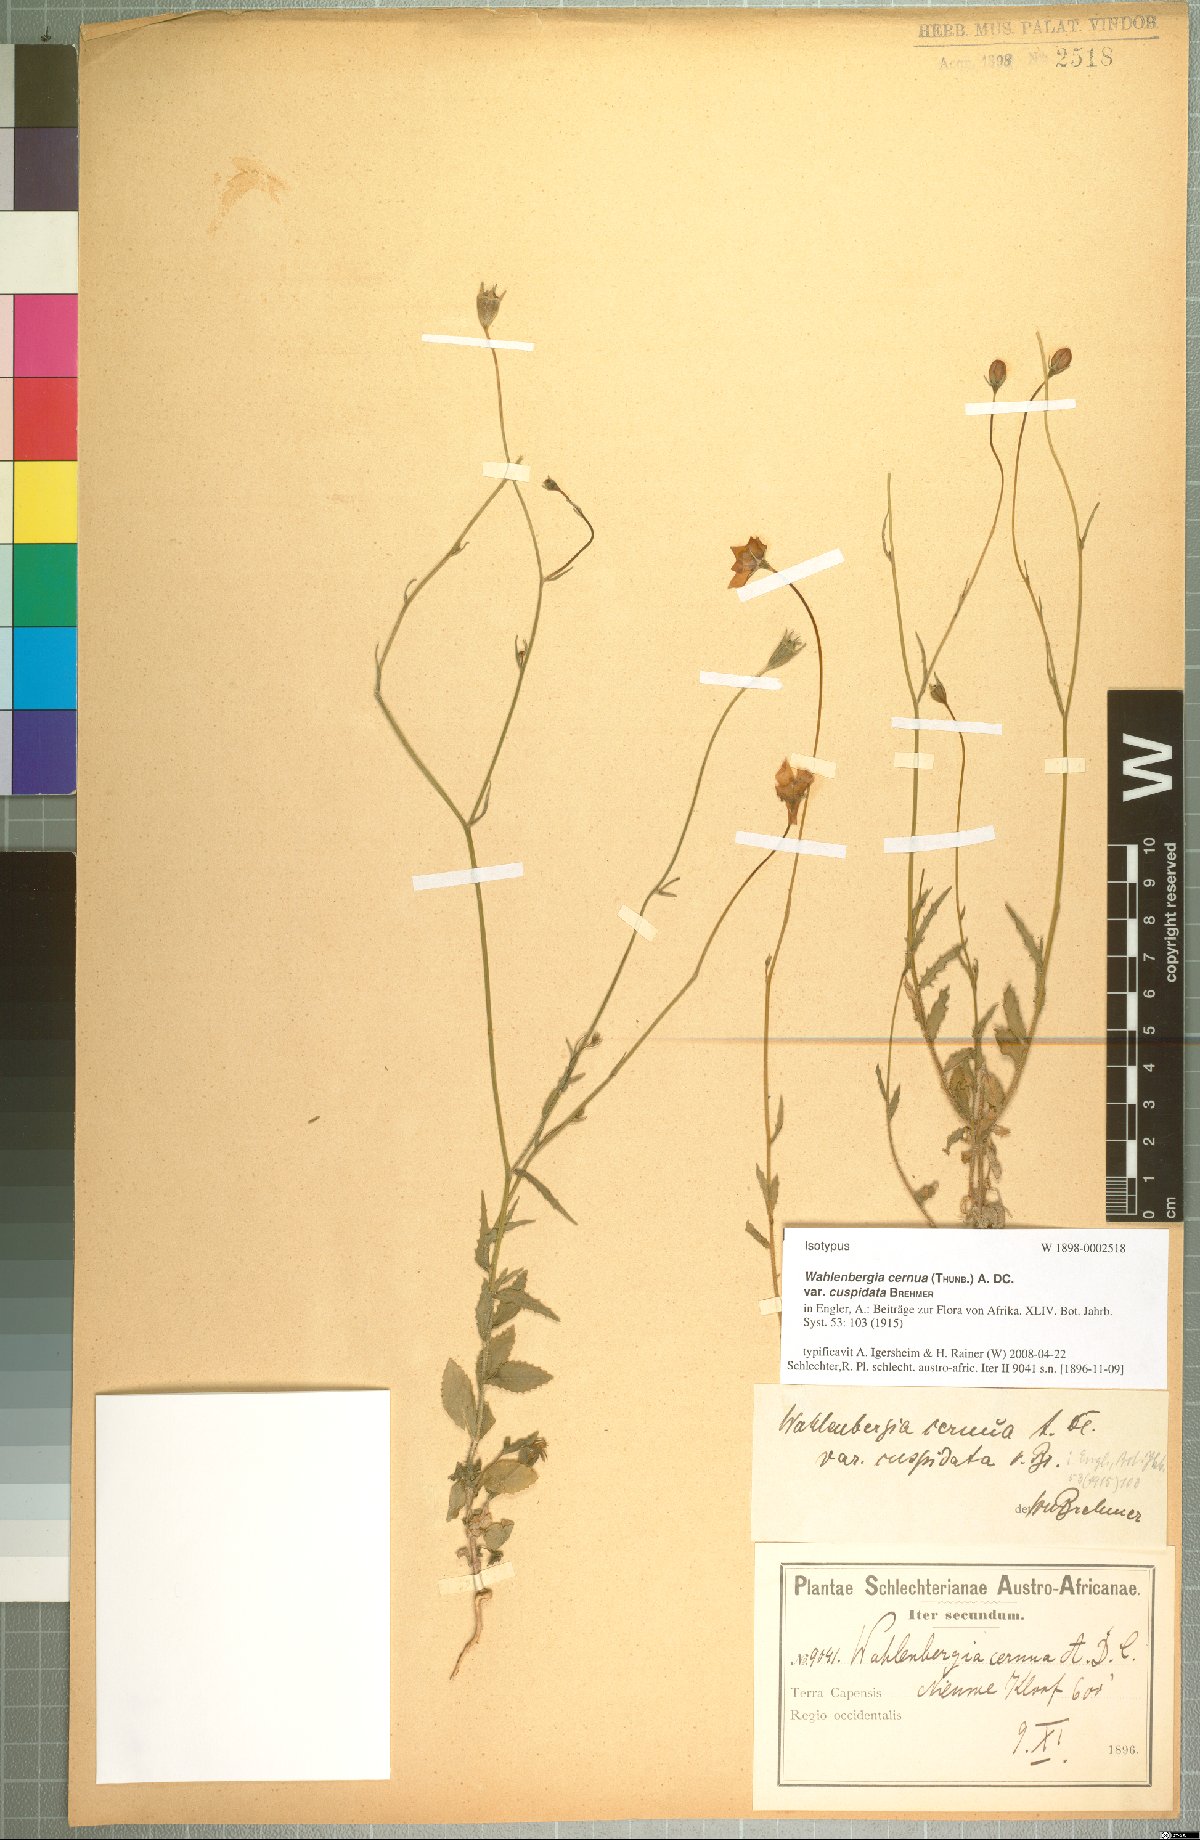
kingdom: Plantae
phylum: Tracheophyta
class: Magnoliopsida
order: Asterales
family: Campanulaceae
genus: Wahlenbergia
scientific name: Wahlenbergia cernua
